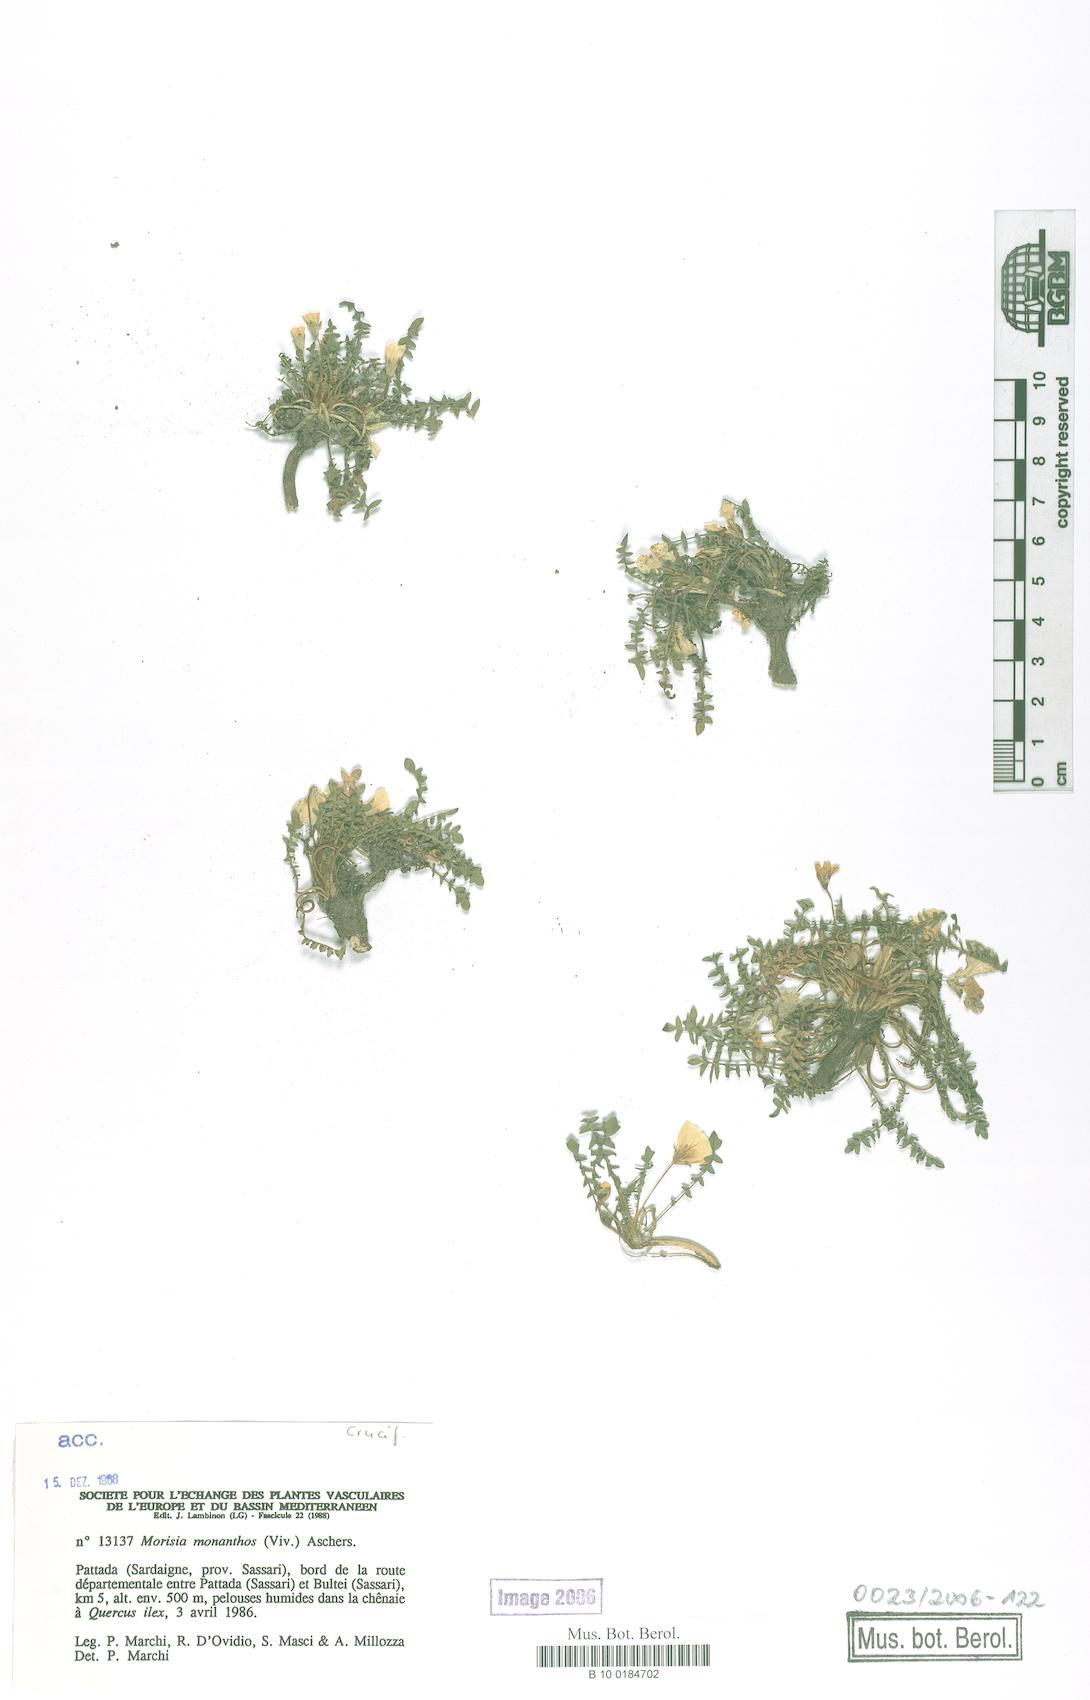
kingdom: Plantae
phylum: Tracheophyta
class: Magnoliopsida
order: Brassicales
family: Brassicaceae
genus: Morisia
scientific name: Morisia monanthos
